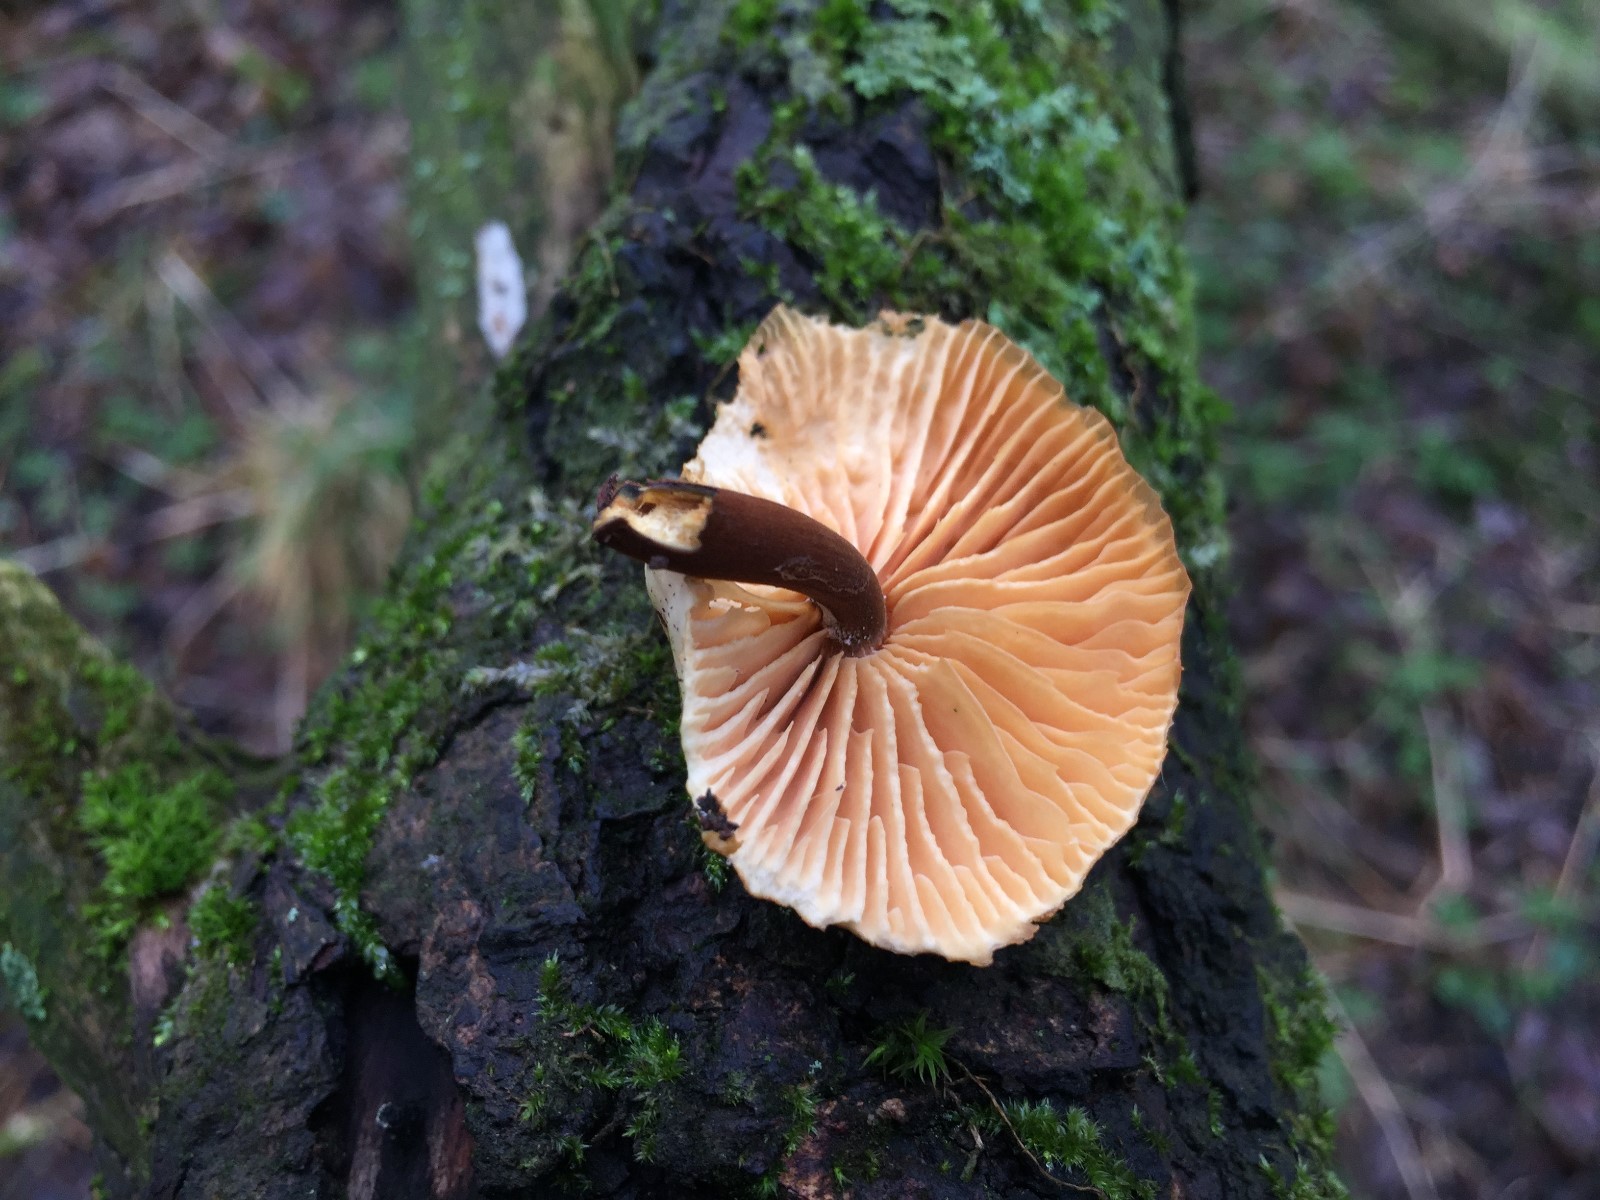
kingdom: Fungi
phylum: Basidiomycota
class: Agaricomycetes
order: Agaricales
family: Physalacriaceae
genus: Flammulina
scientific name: Flammulina
